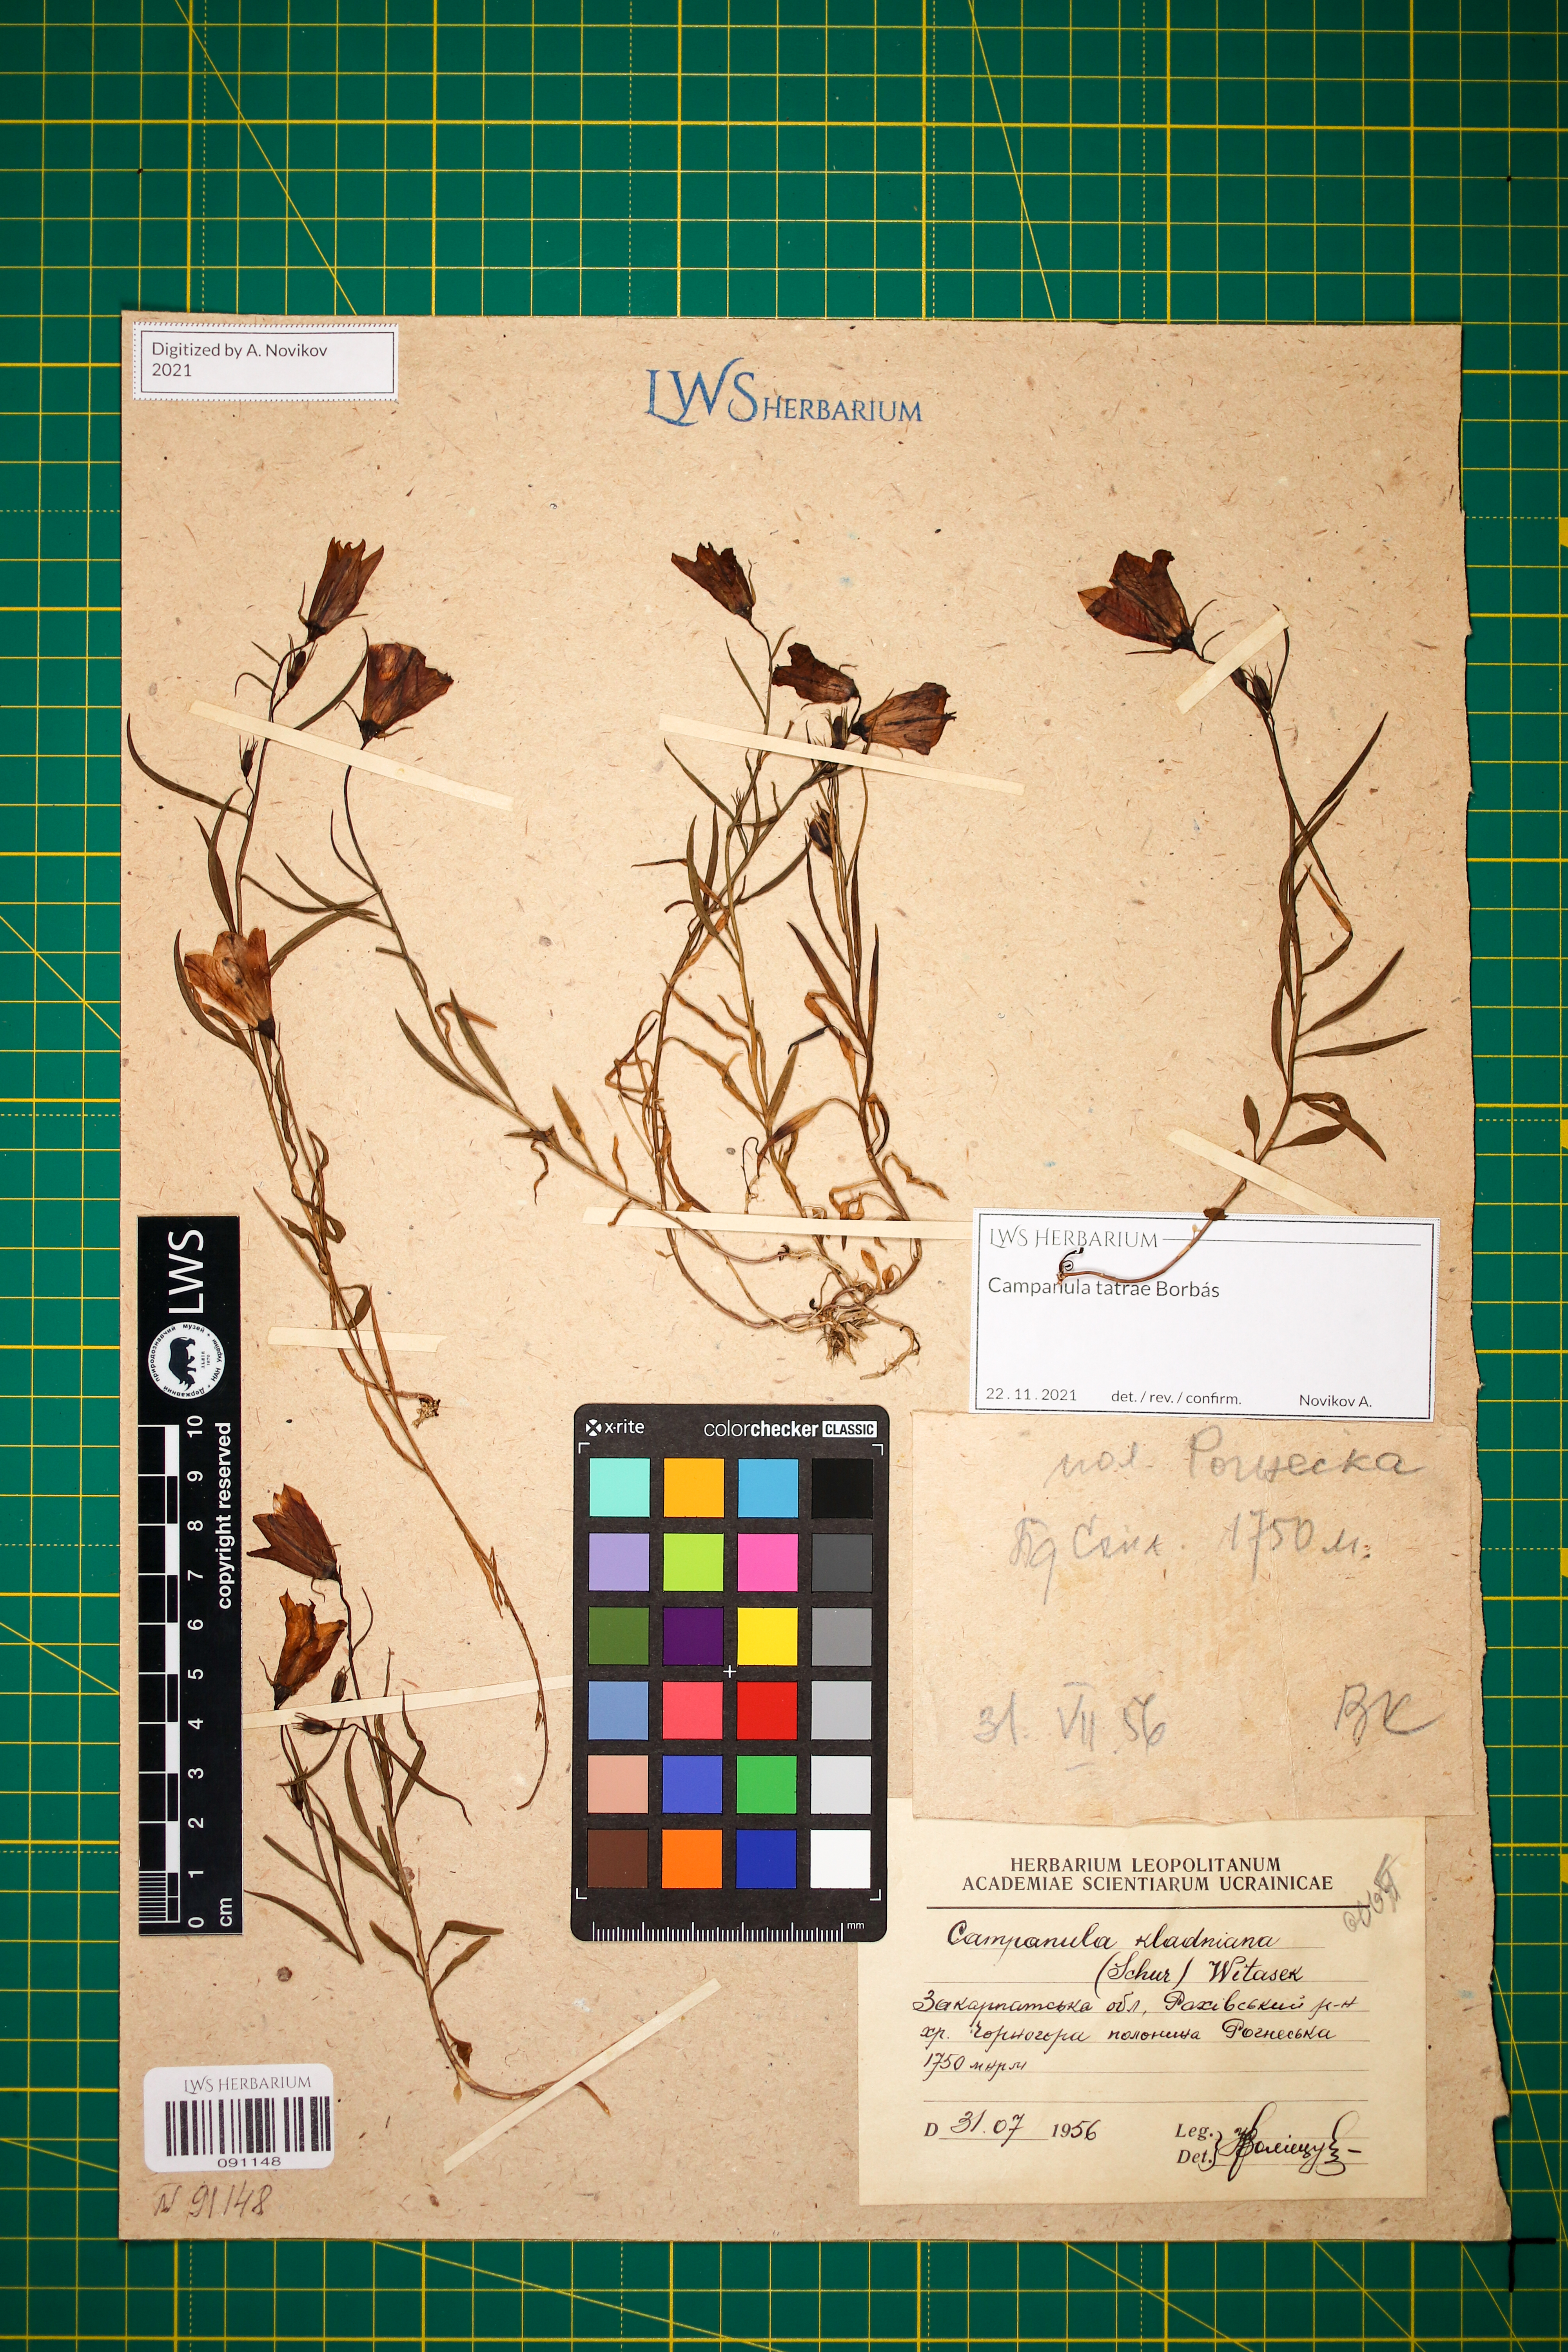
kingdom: Plantae
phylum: Tracheophyta
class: Magnoliopsida
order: Asterales
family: Campanulaceae
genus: Campanula
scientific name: Campanula kladniana
